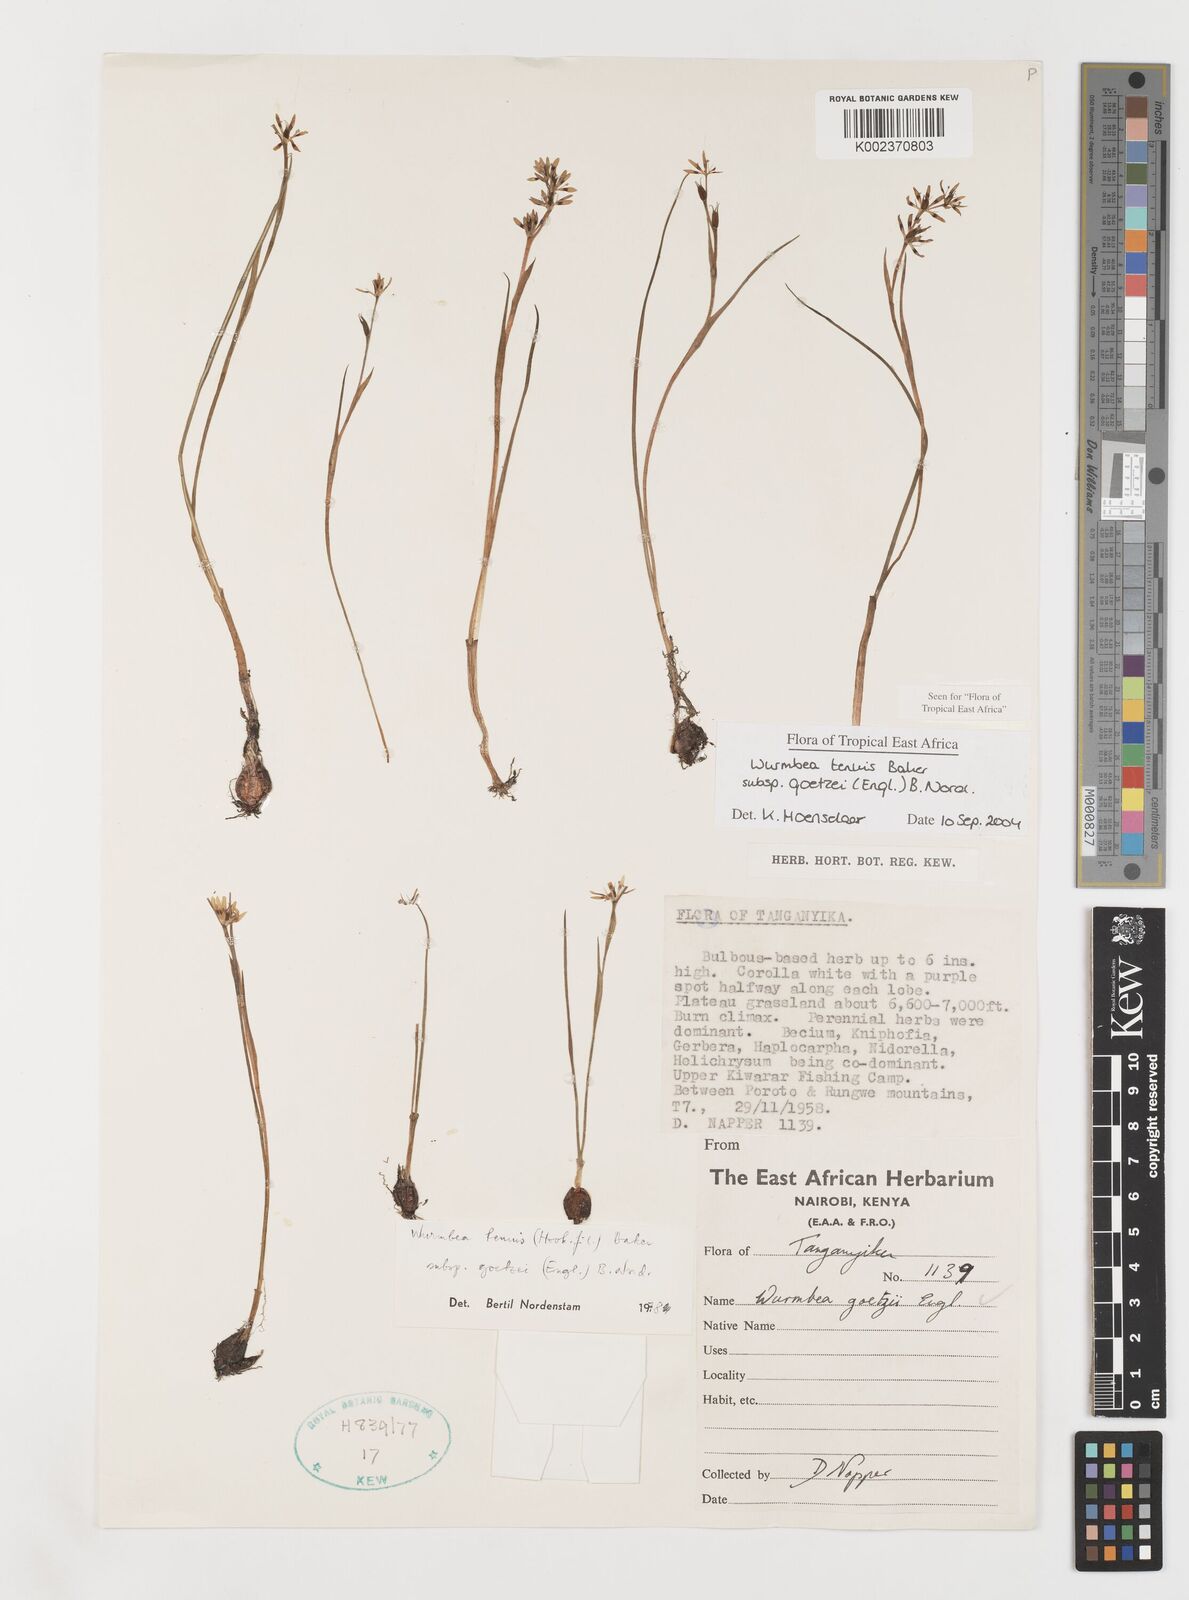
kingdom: Plantae
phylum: Tracheophyta
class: Liliopsida
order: Liliales
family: Colchicaceae
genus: Wurmbea
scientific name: Wurmbea tenuis
